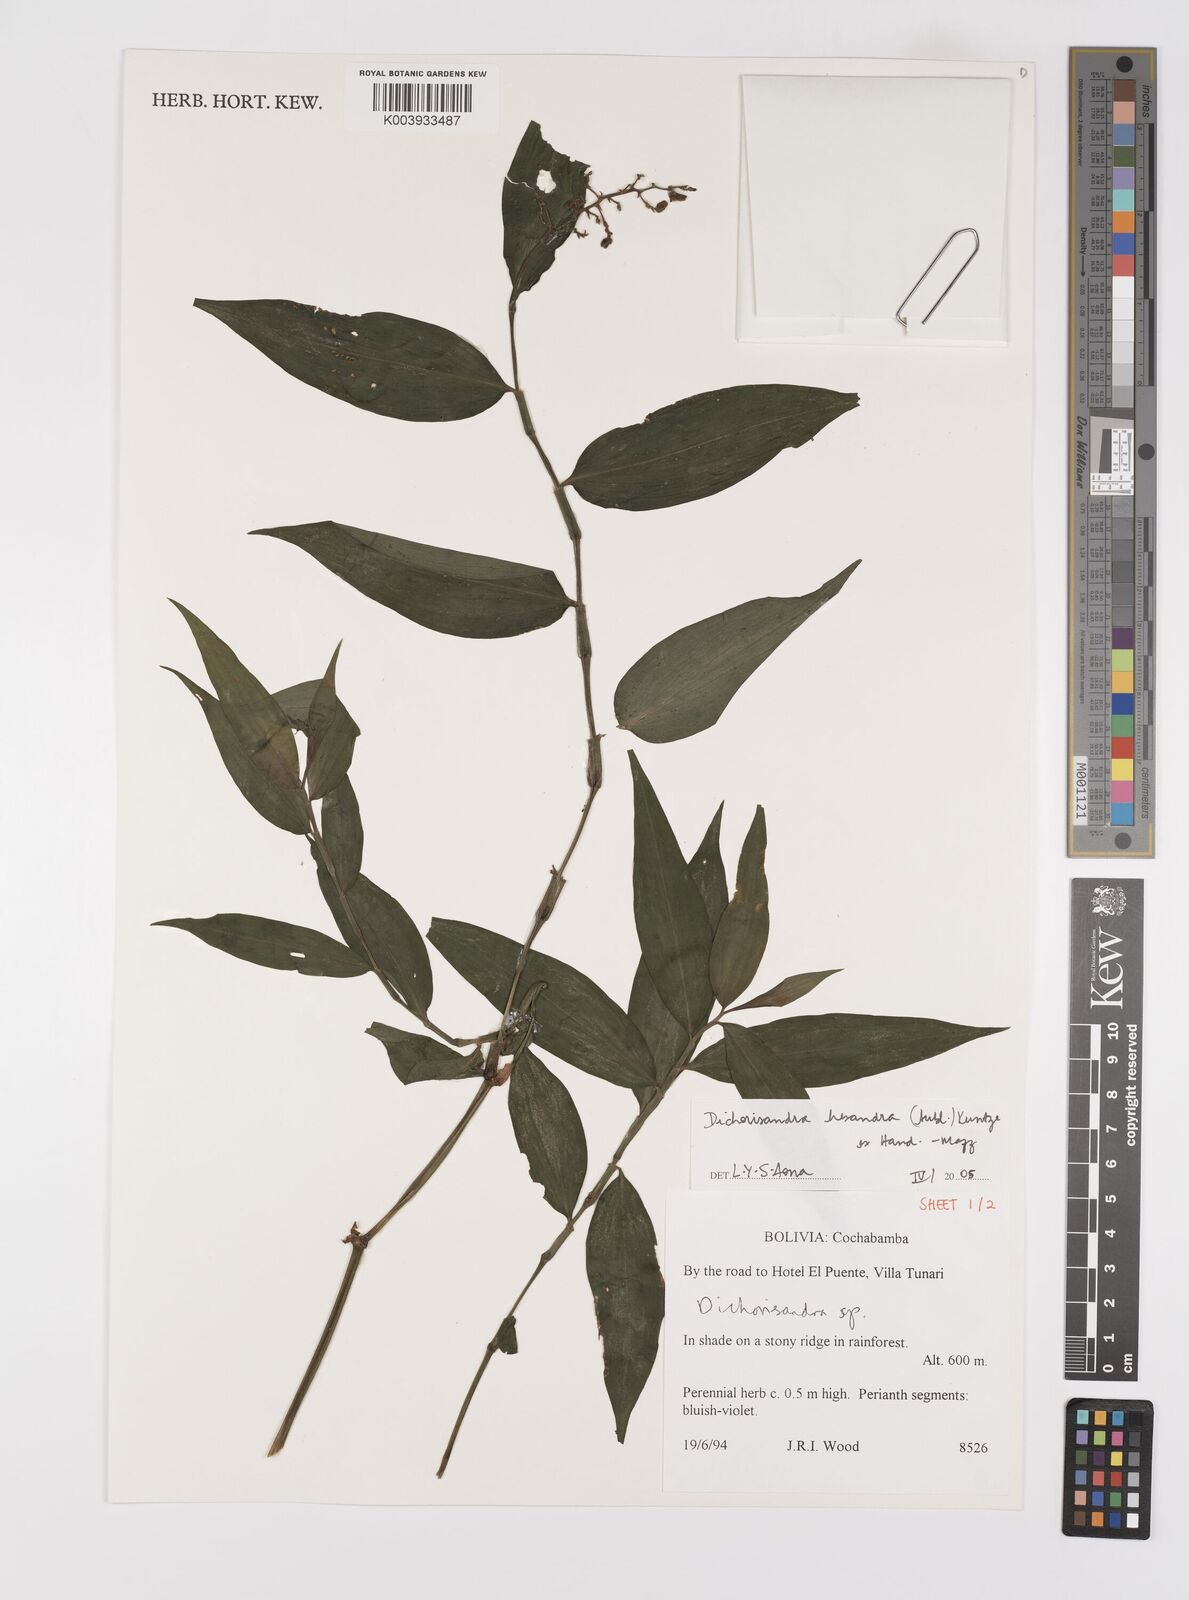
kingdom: Plantae
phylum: Tracheophyta
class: Liliopsida
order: Commelinales
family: Commelinaceae
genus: Dichorisandra
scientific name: Dichorisandra hexandra
